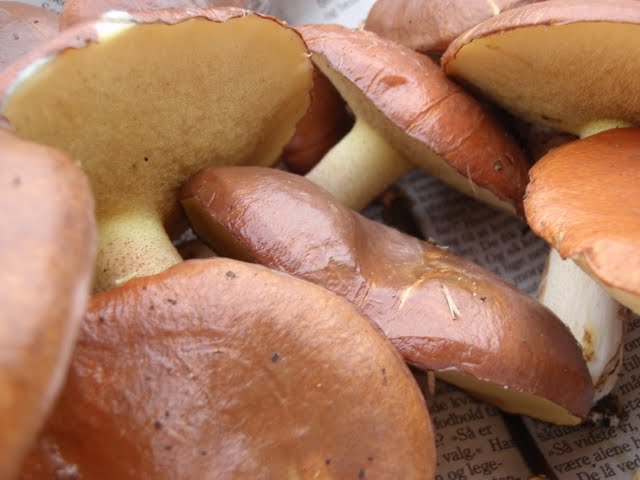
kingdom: Fungi
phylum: Basidiomycota
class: Agaricomycetes
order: Boletales
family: Suillaceae
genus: Suillus
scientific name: Suillus luteus
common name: brungul slimrørhat
